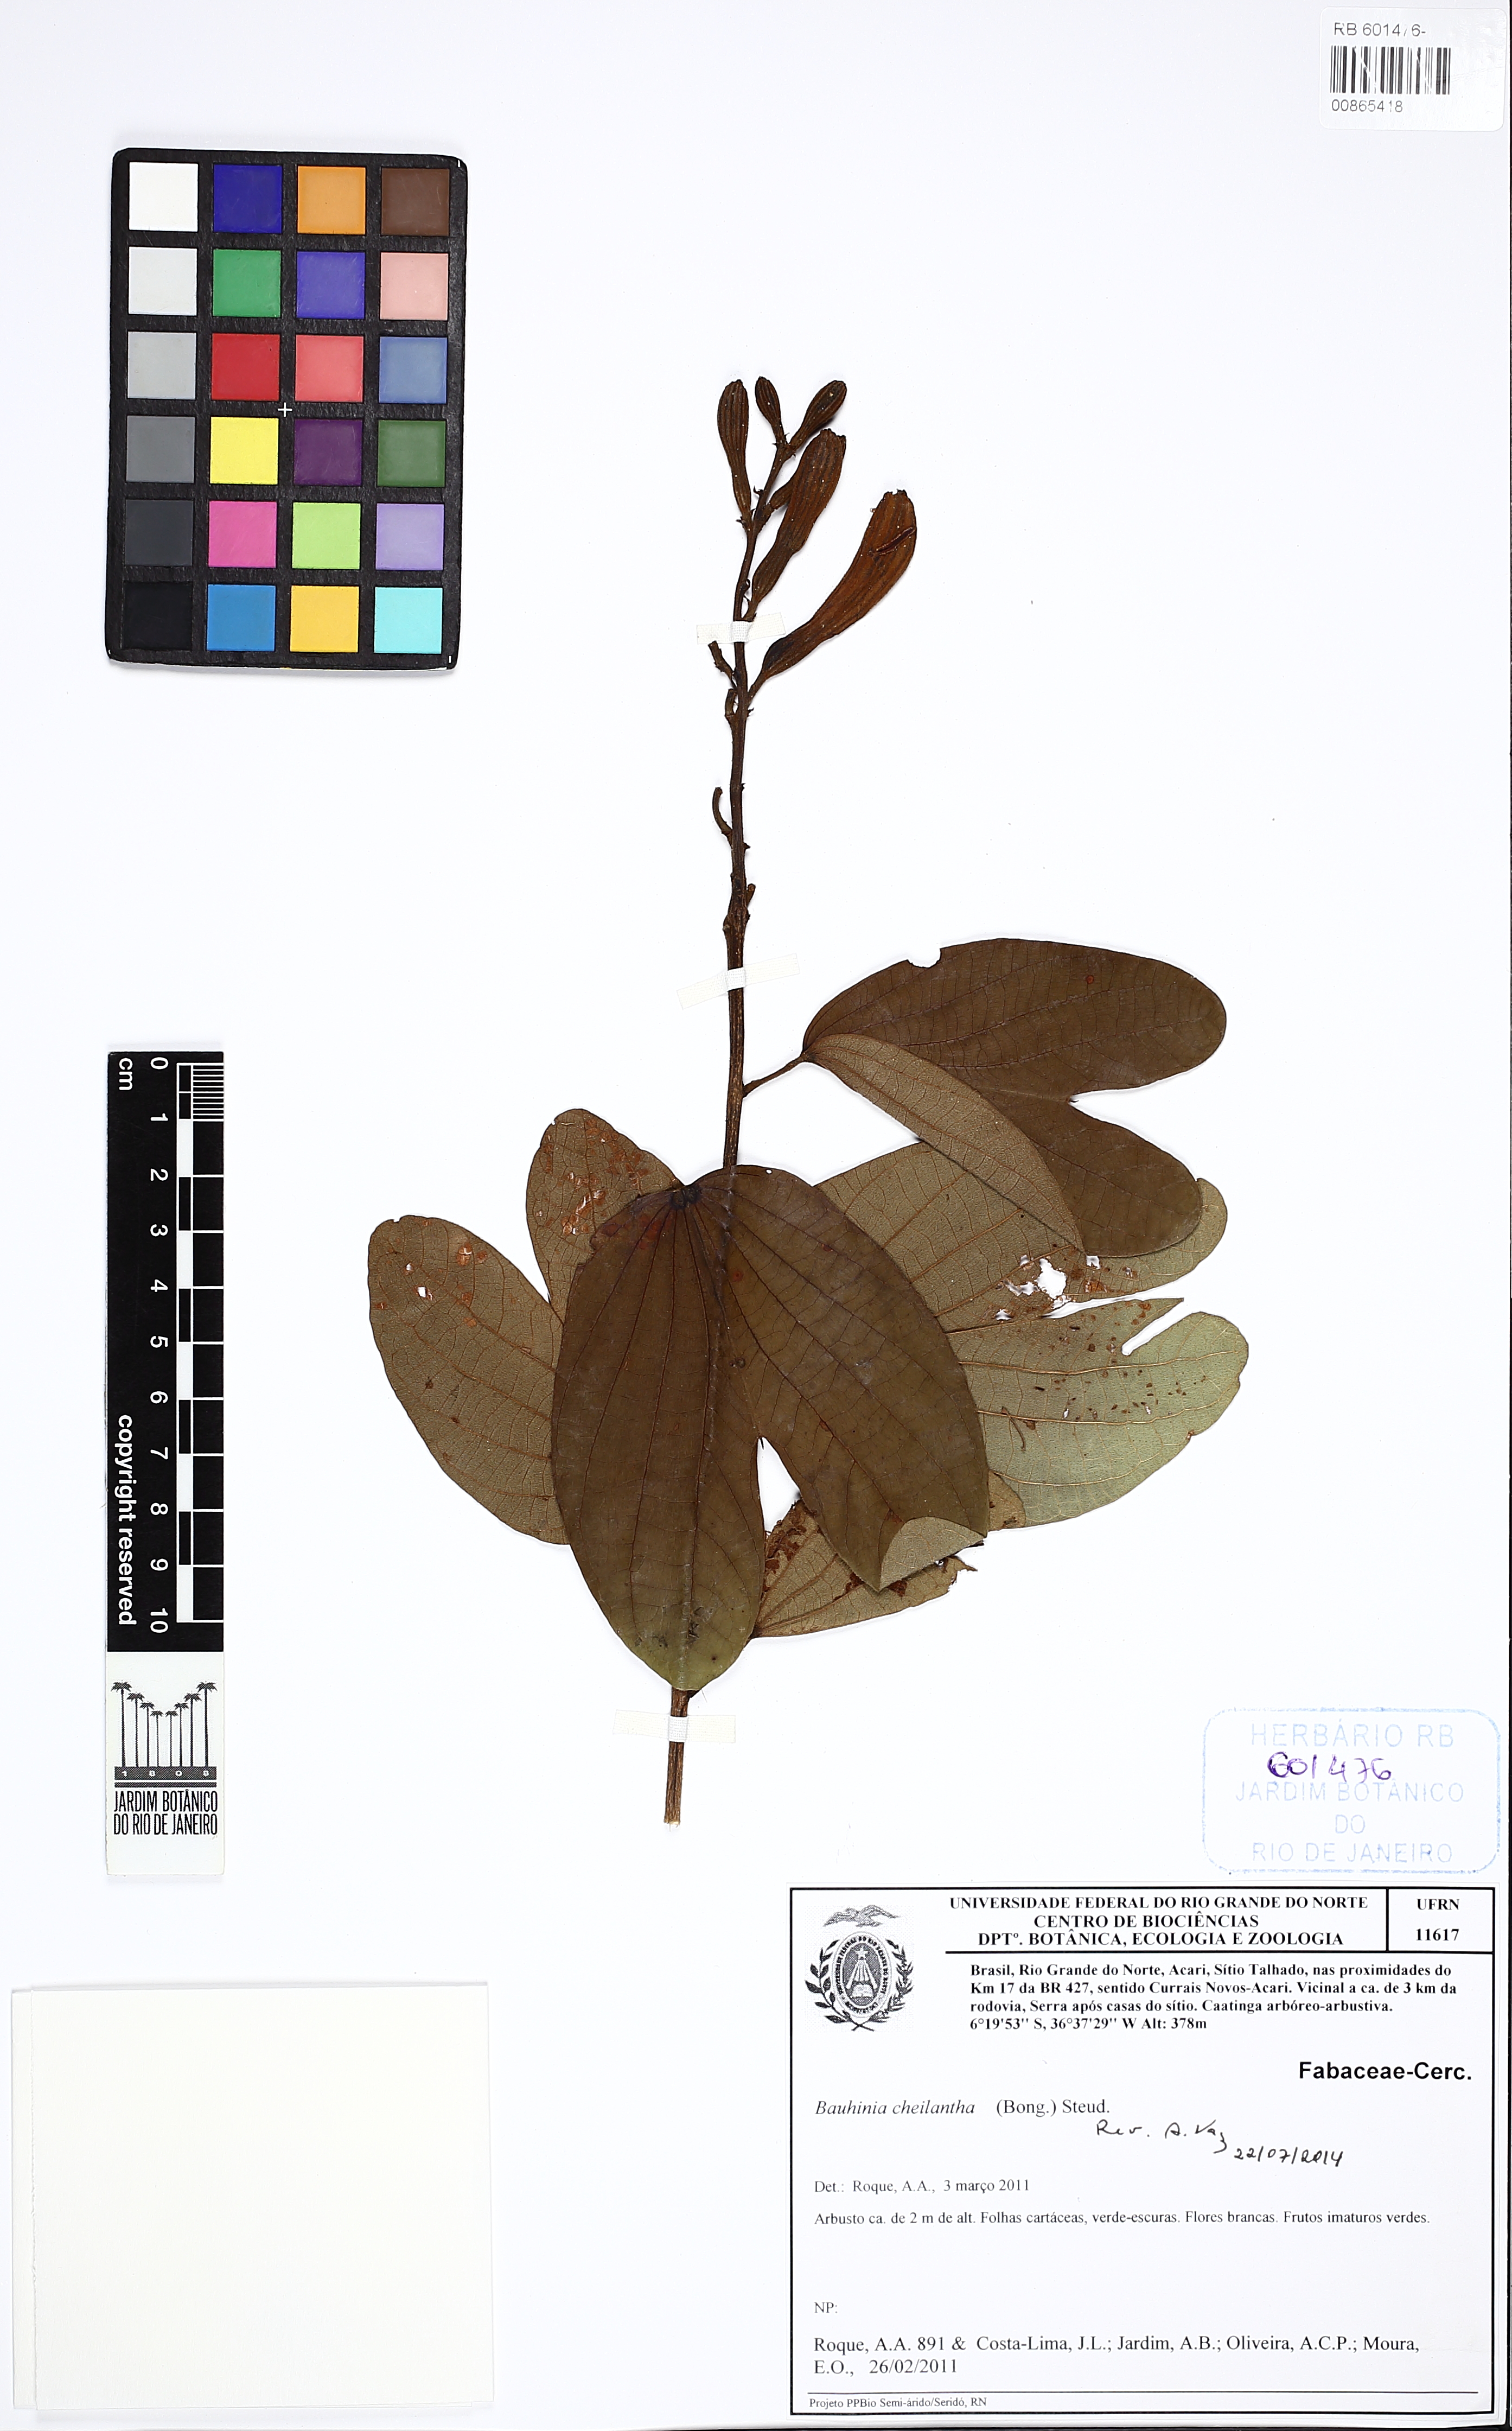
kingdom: Plantae
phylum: Tracheophyta
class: Magnoliopsida
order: Fabales
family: Fabaceae
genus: Bauhinia
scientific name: Bauhinia cheilantha
